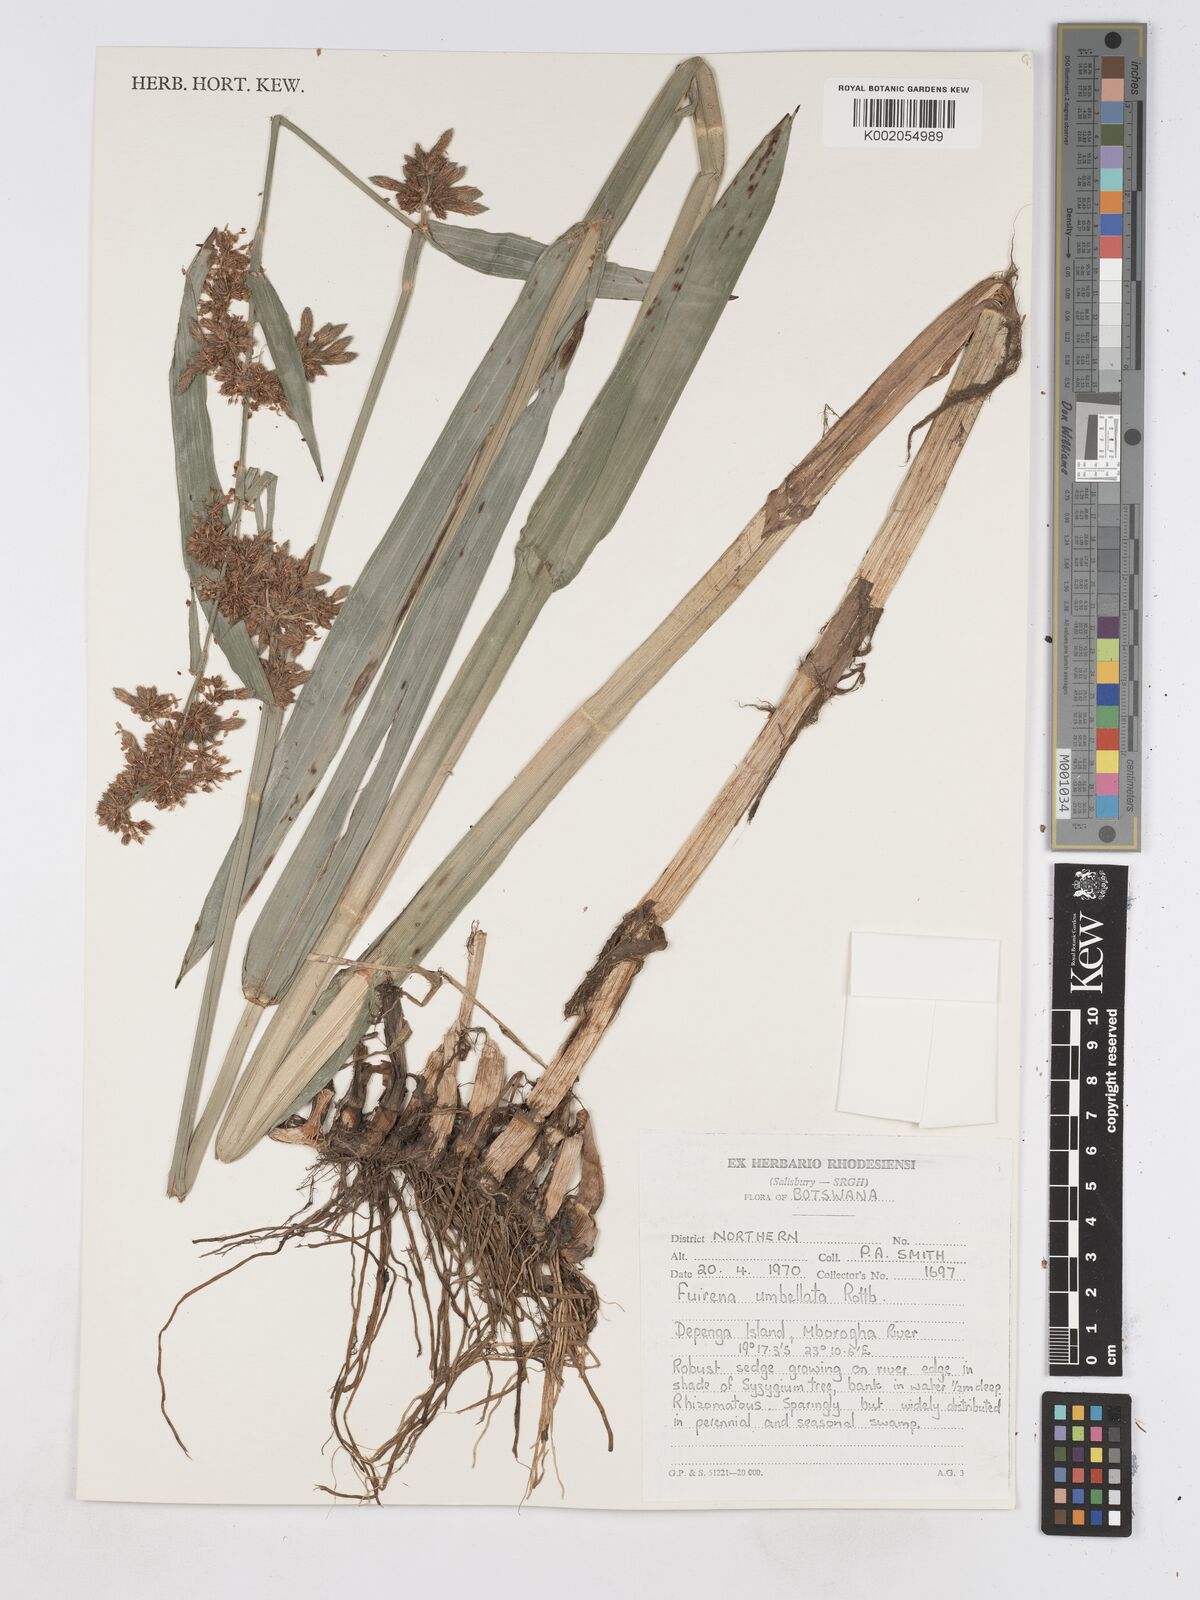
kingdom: Plantae
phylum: Tracheophyta
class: Liliopsida
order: Poales
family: Cyperaceae
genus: Fuirena
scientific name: Fuirena umbellata
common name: Yefen
